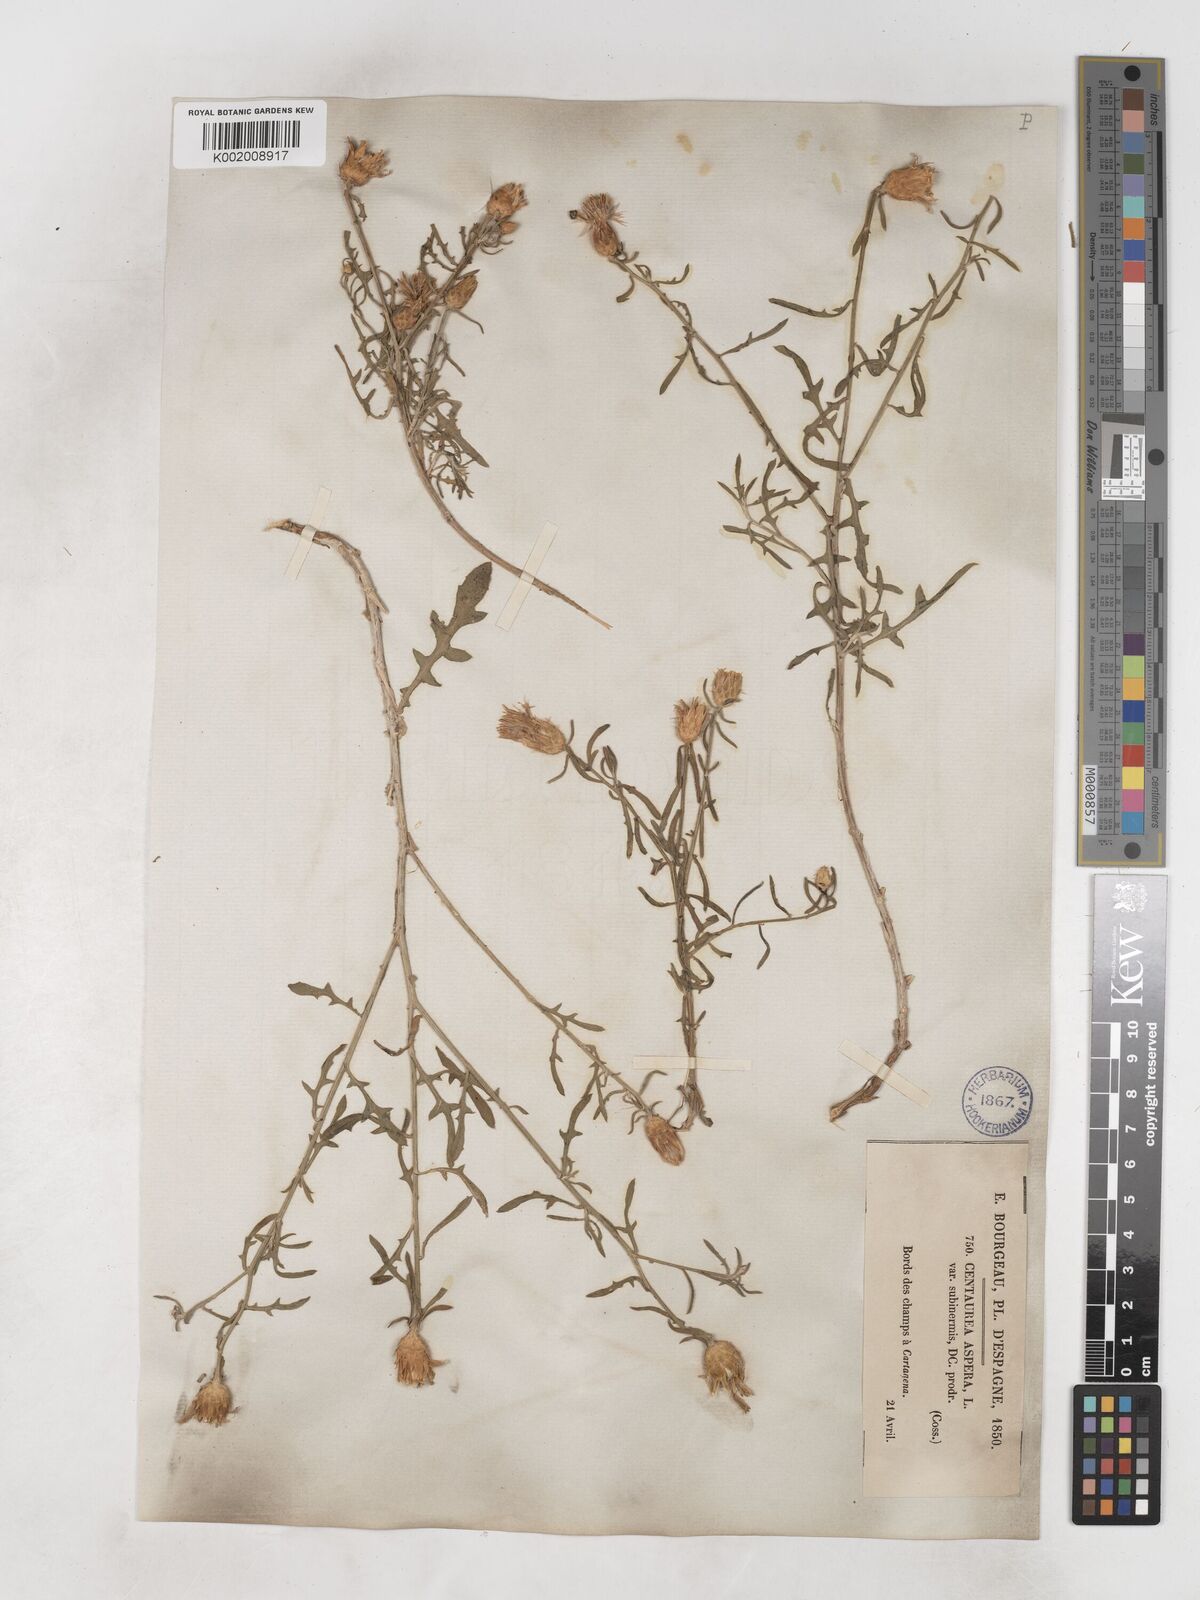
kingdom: Plantae
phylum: Tracheophyta
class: Magnoliopsida
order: Asterales
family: Asteraceae
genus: Centaurea
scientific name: Centaurea aspera
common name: Rough star-thistle
